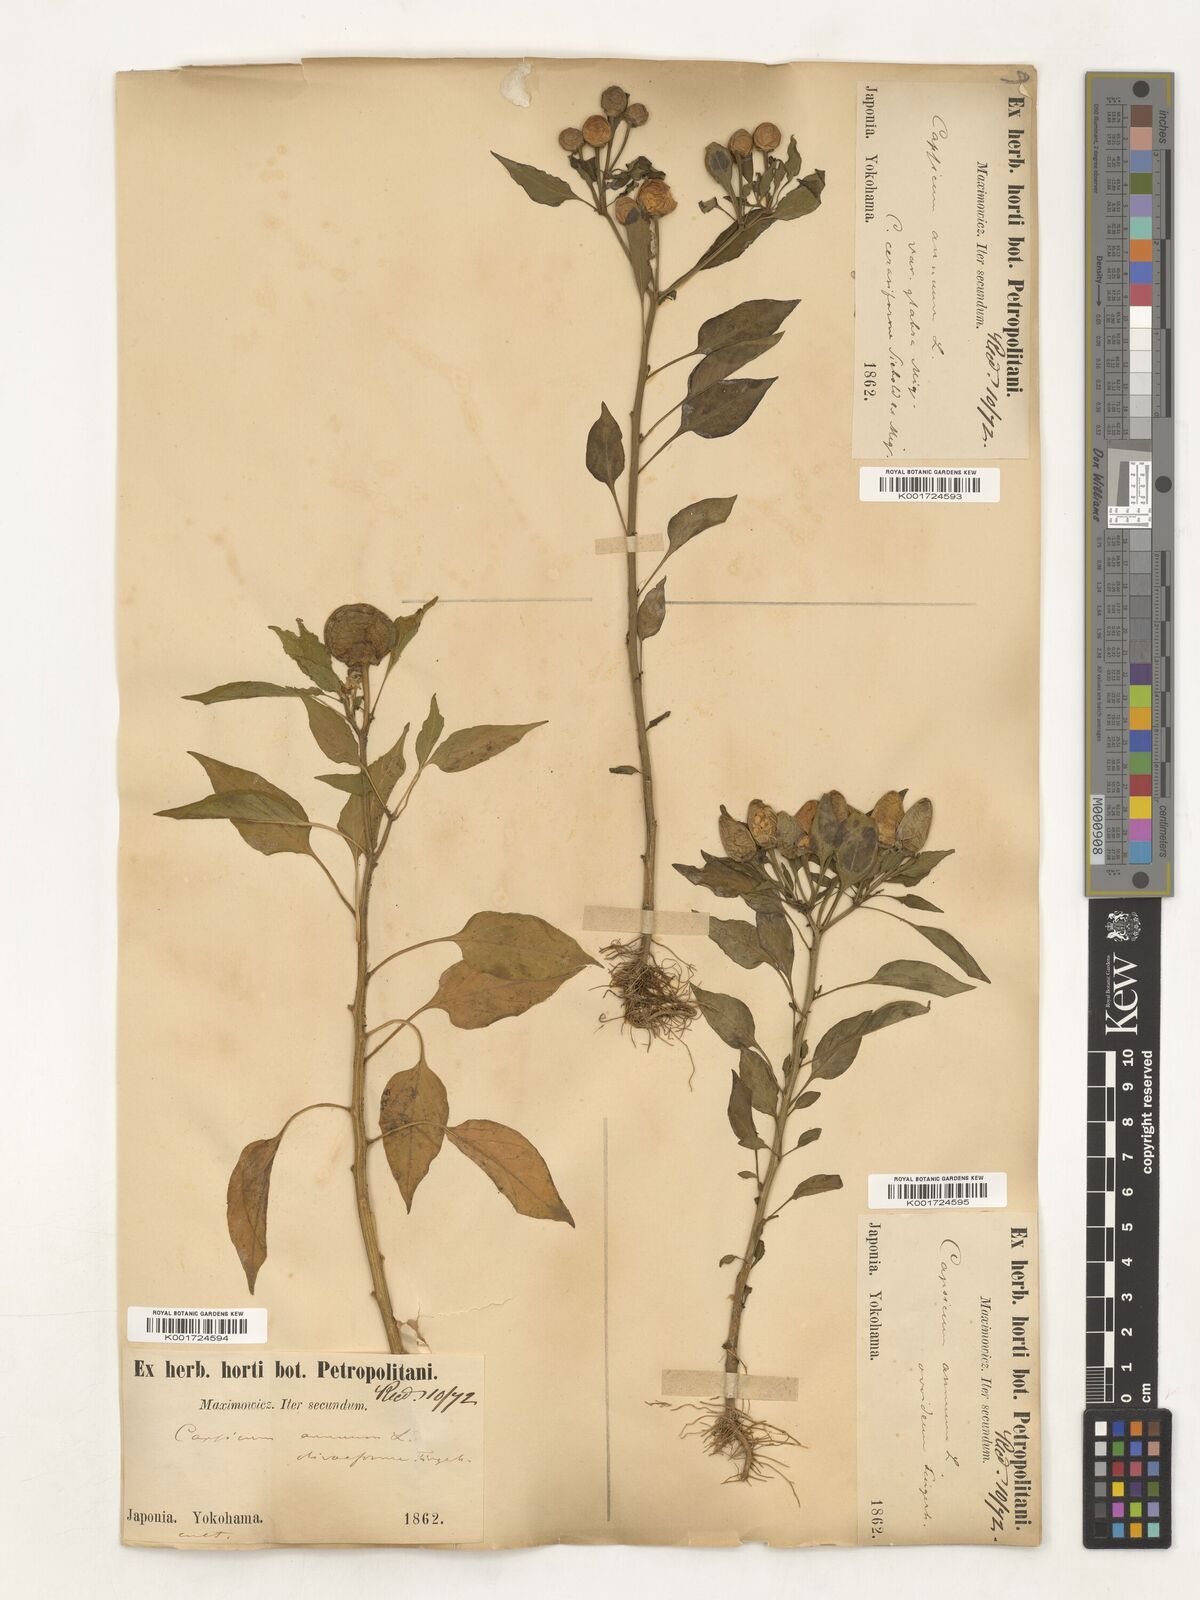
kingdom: Plantae
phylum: Tracheophyta
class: Magnoliopsida
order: Solanales
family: Solanaceae
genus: Capsicum
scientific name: Capsicum annuum
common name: Sweet pepper
